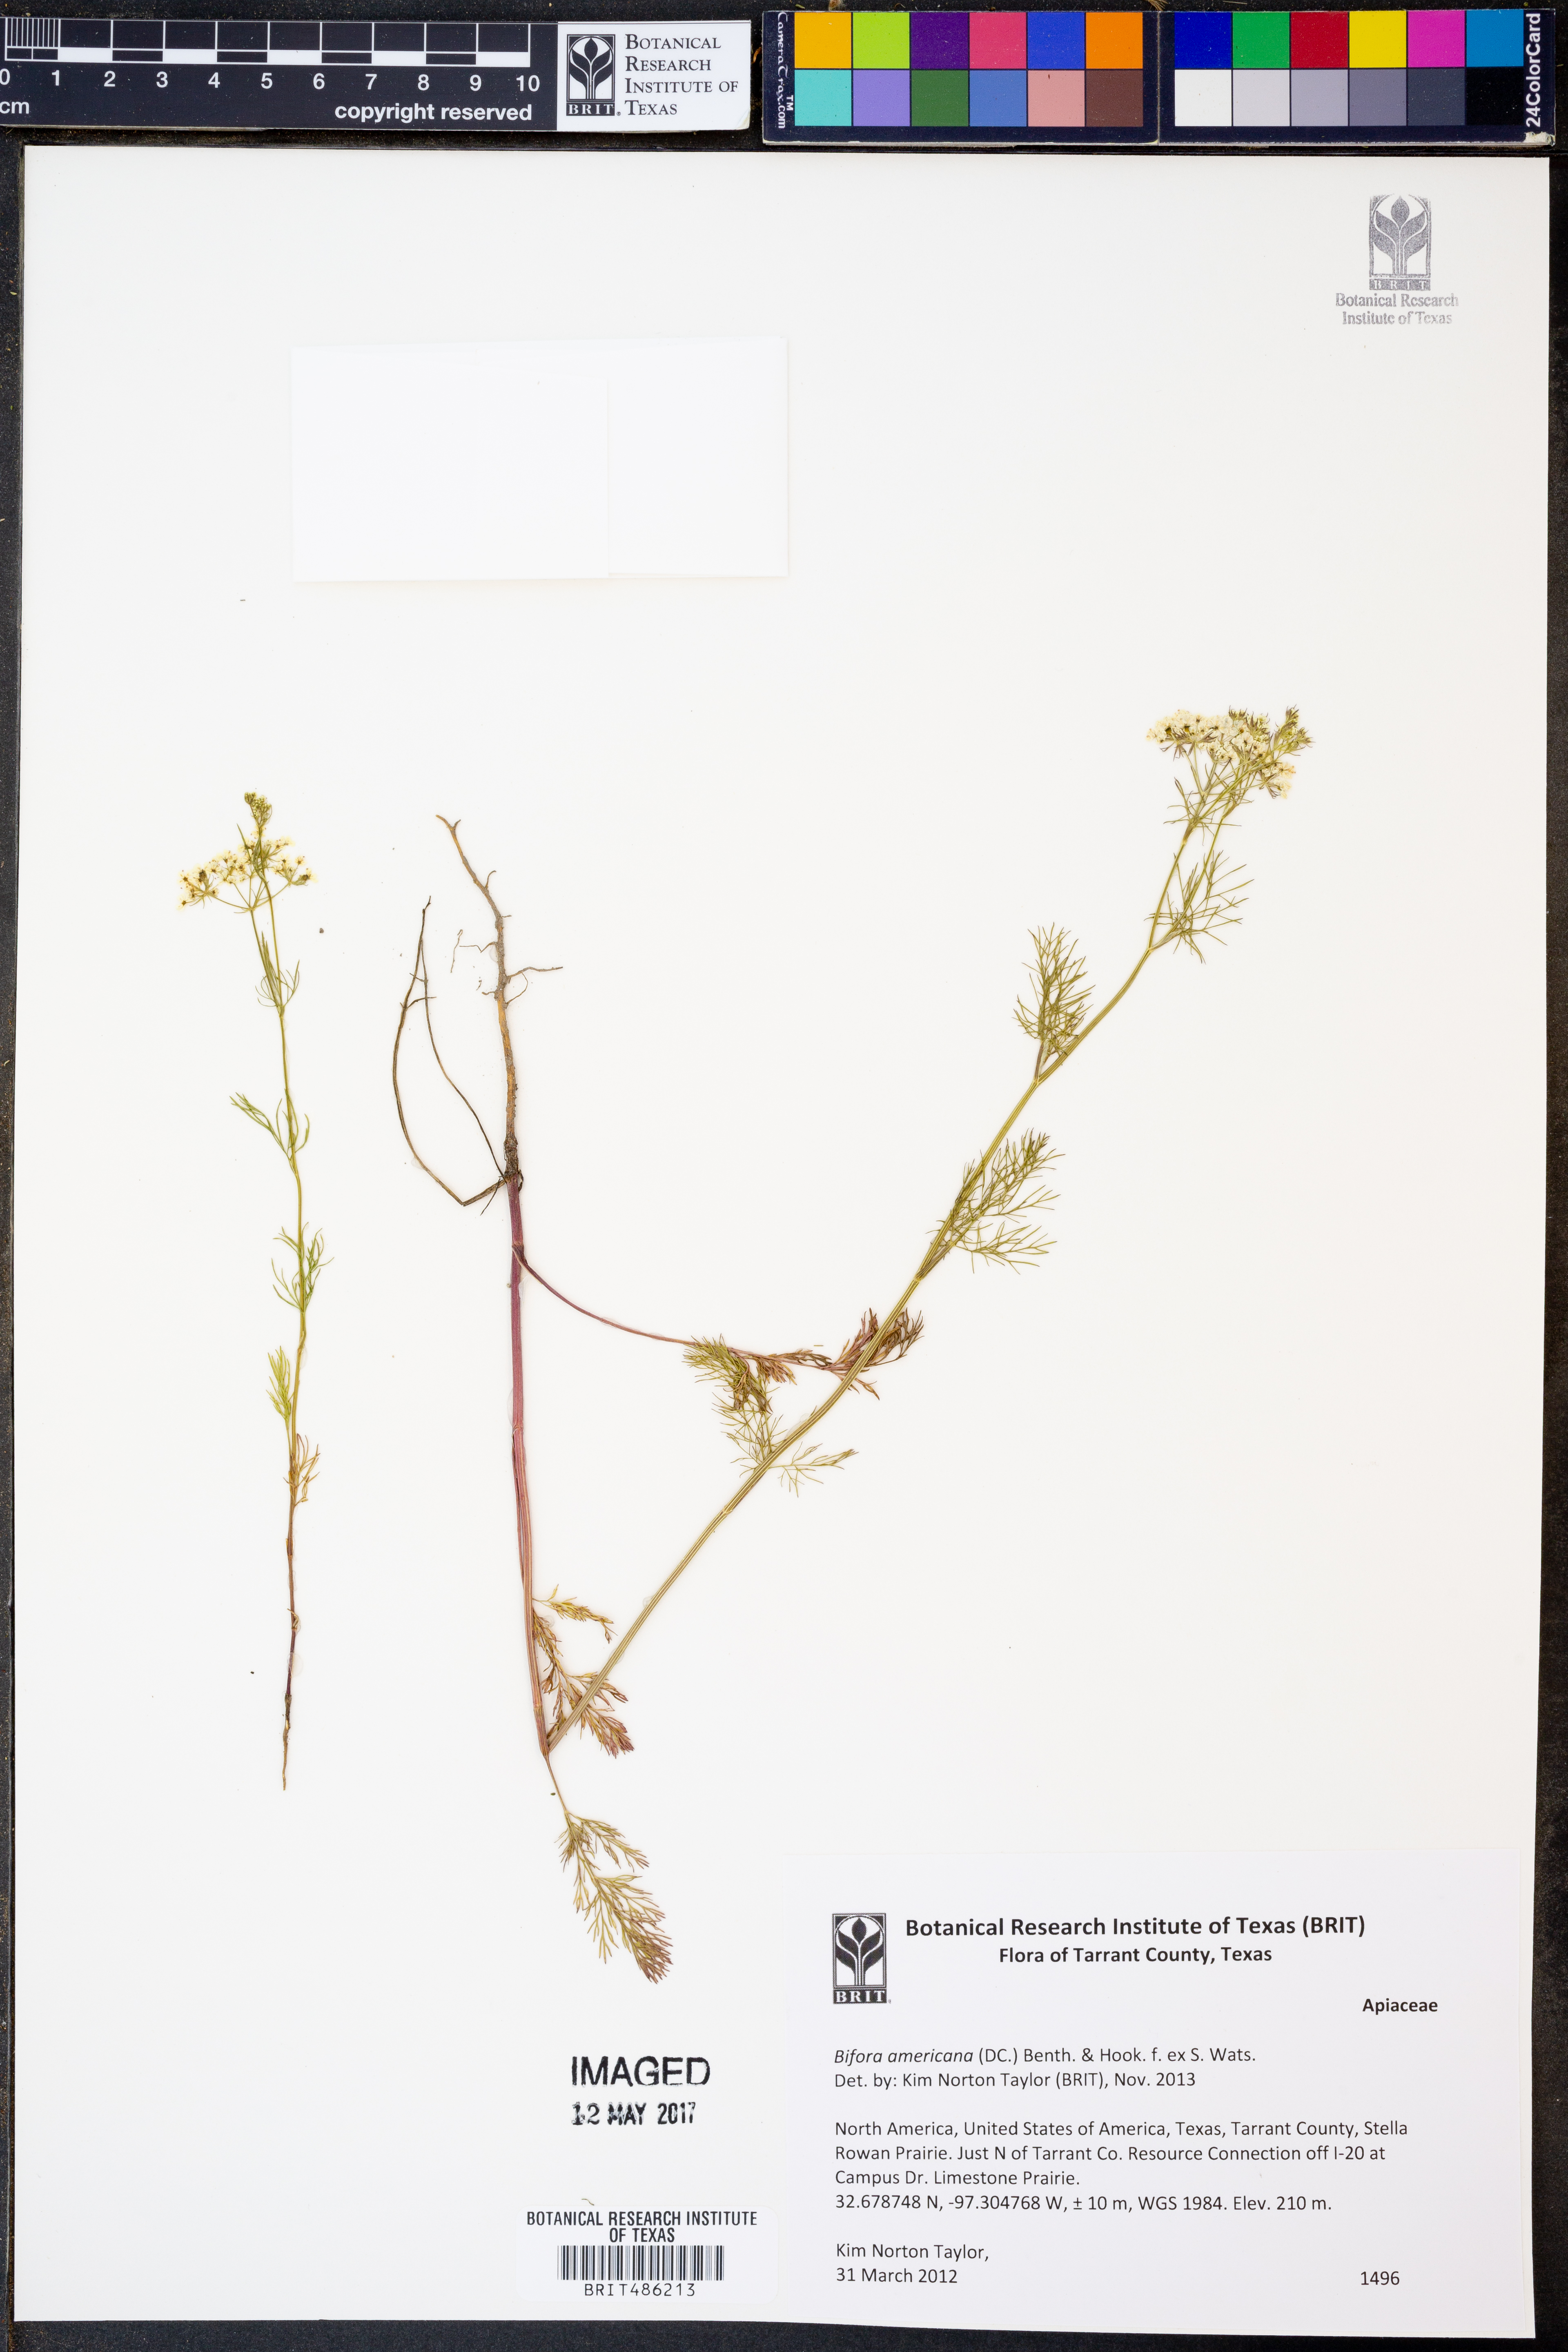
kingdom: Plantae
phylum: Tracheophyta
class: Magnoliopsida
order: Apiales
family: Apiaceae
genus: Atrema
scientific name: Atrema americanum
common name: Prairie-bishop
